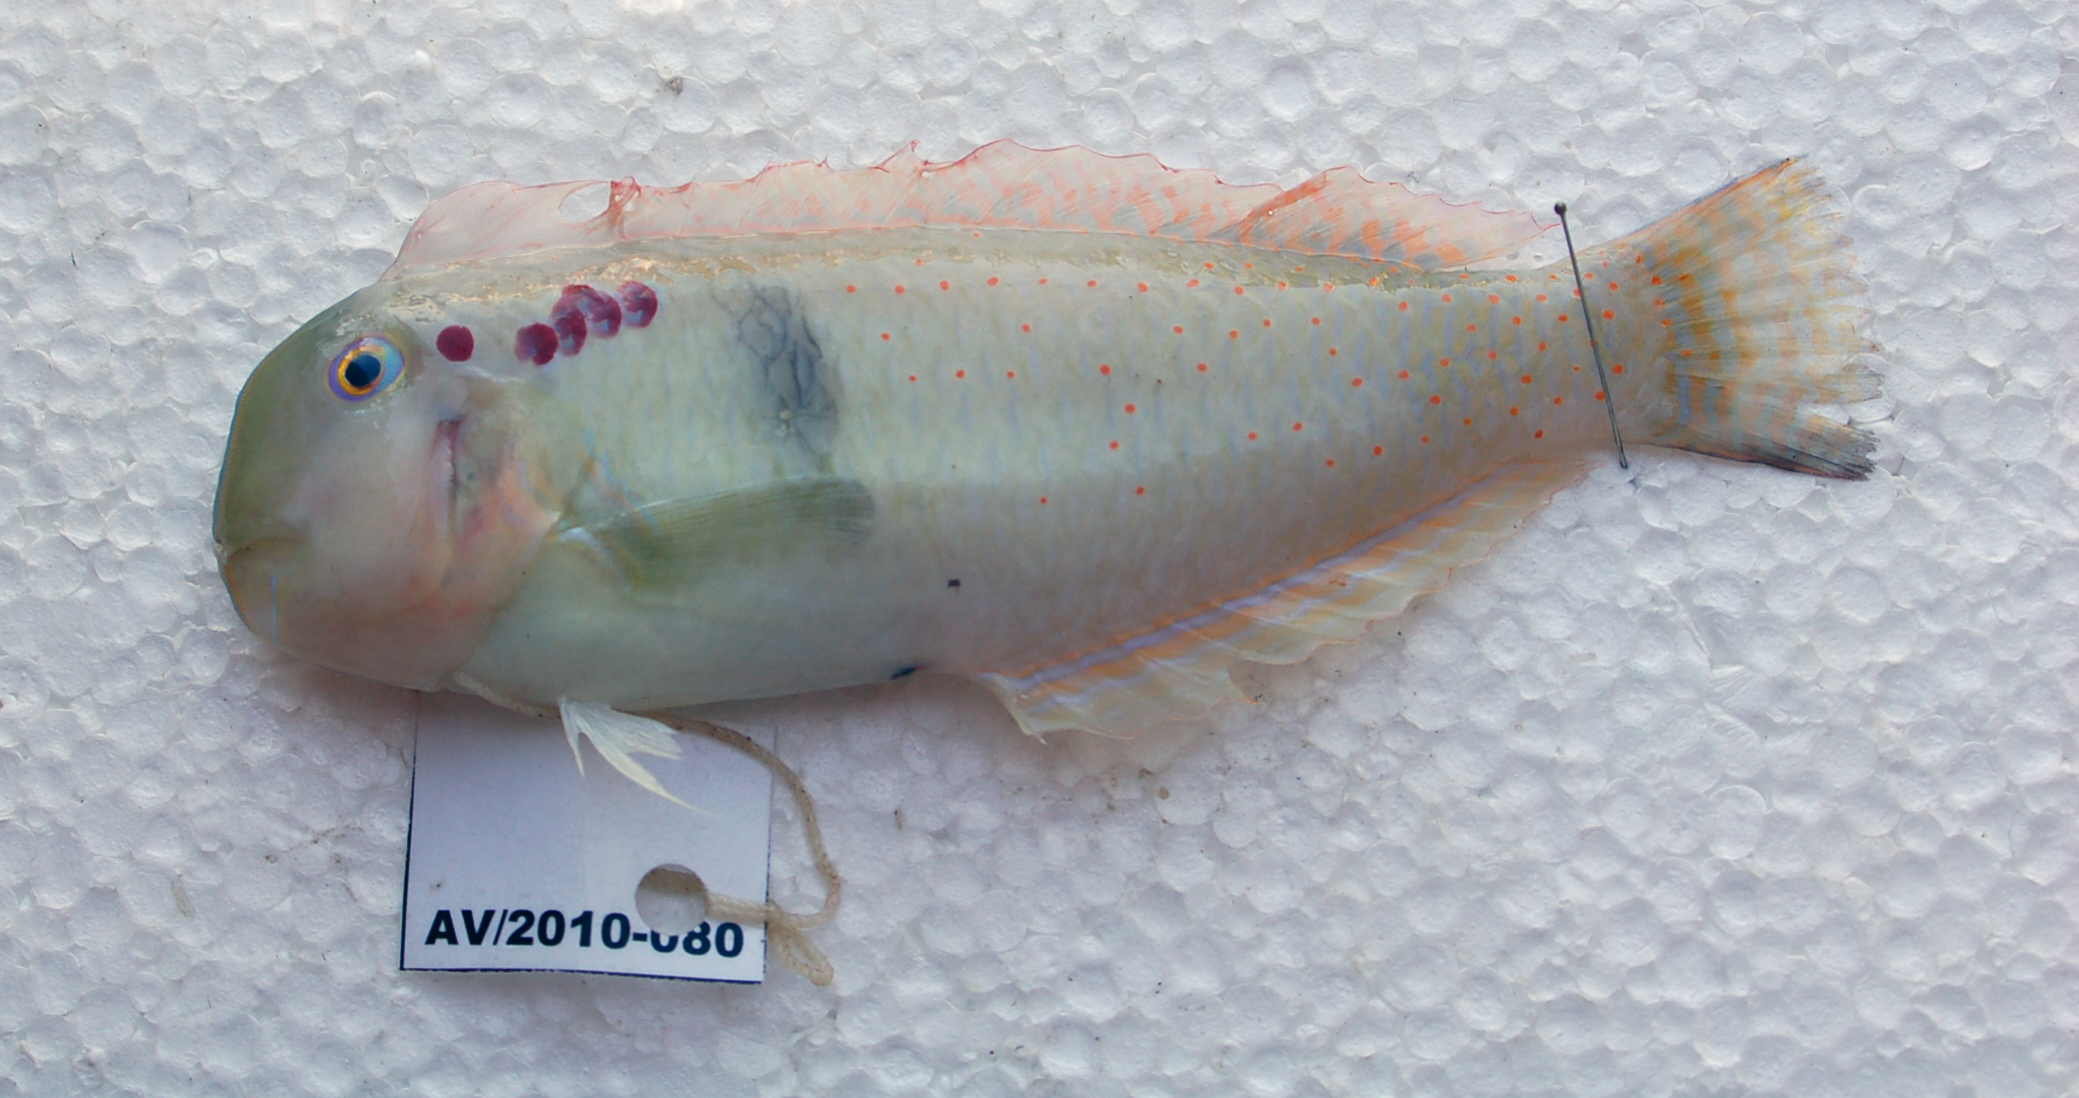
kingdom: Animalia
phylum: Chordata
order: Perciformes
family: Labridae
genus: Iniistius
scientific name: Iniistius pentadactylus
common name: Fivefinger razorfish
